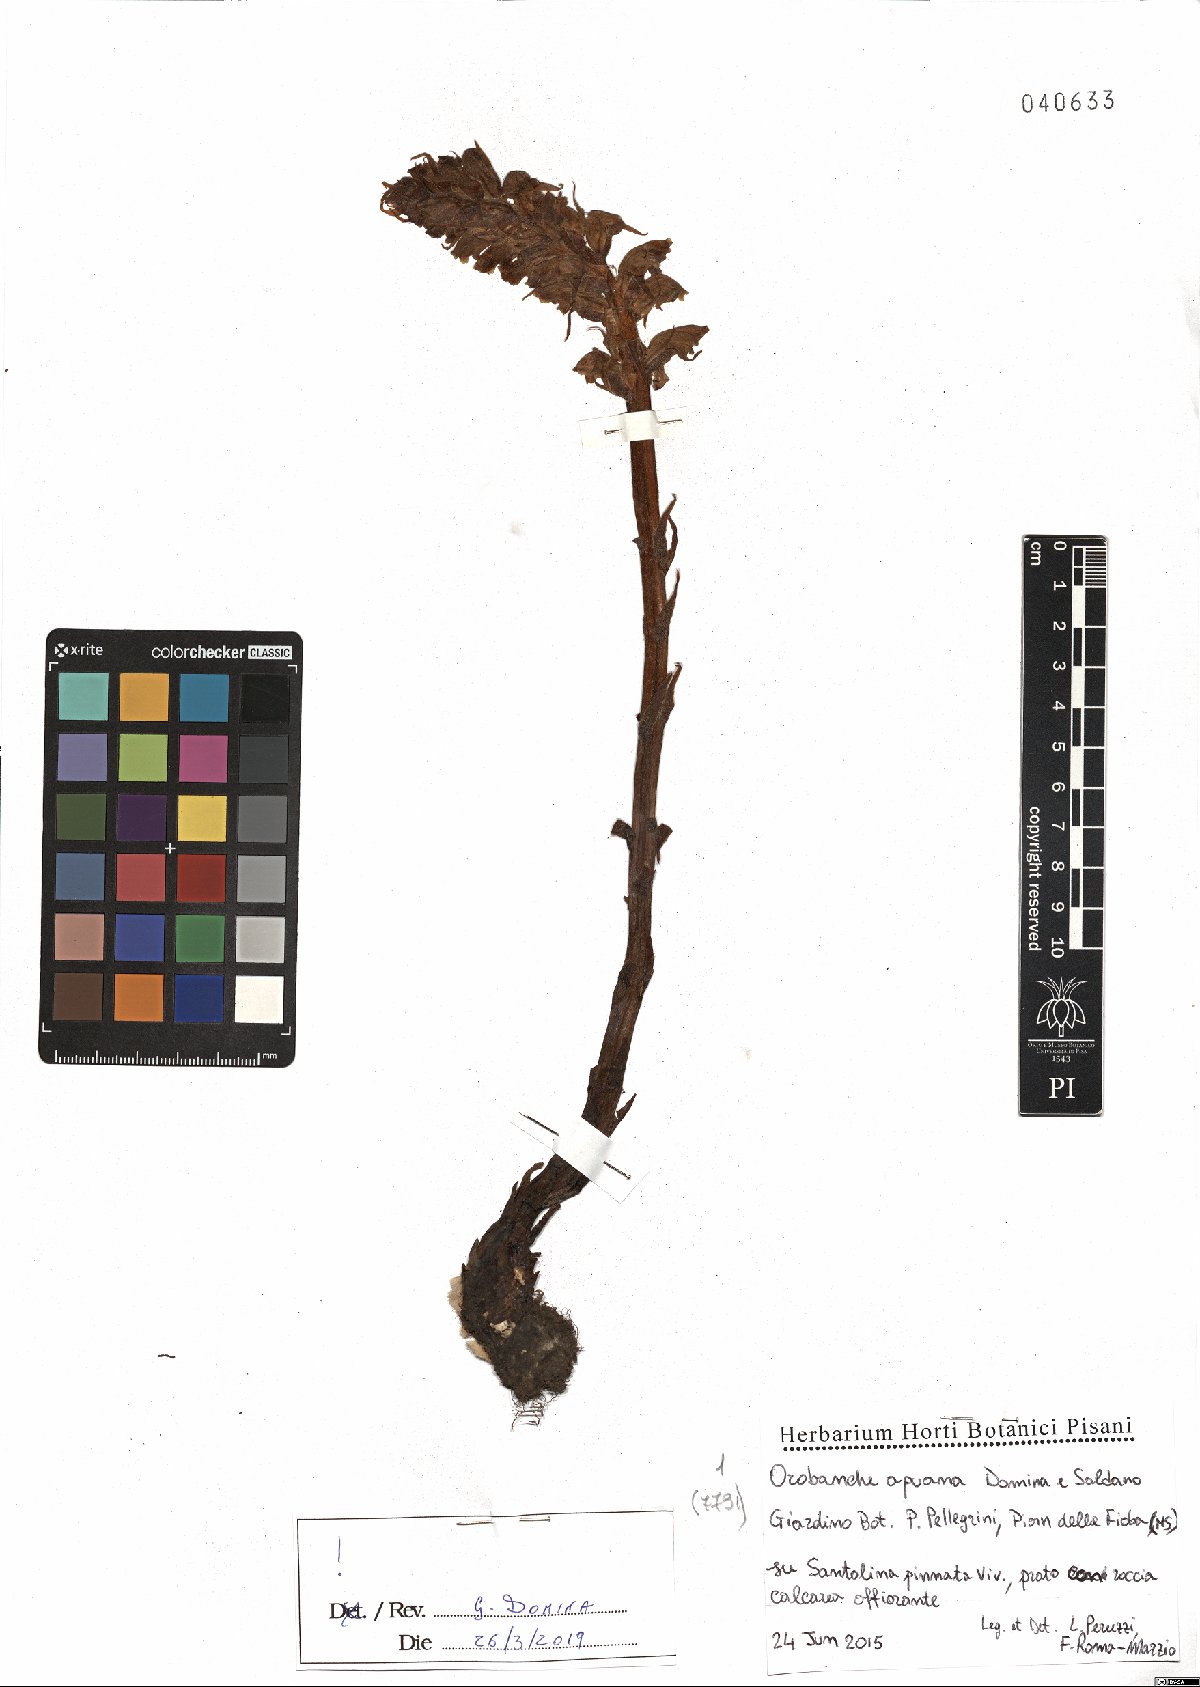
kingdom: Plantae
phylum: Tracheophyta
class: Magnoliopsida
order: Lamiales
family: Orobanchaceae
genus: Orobanche
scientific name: Orobanche apuana
